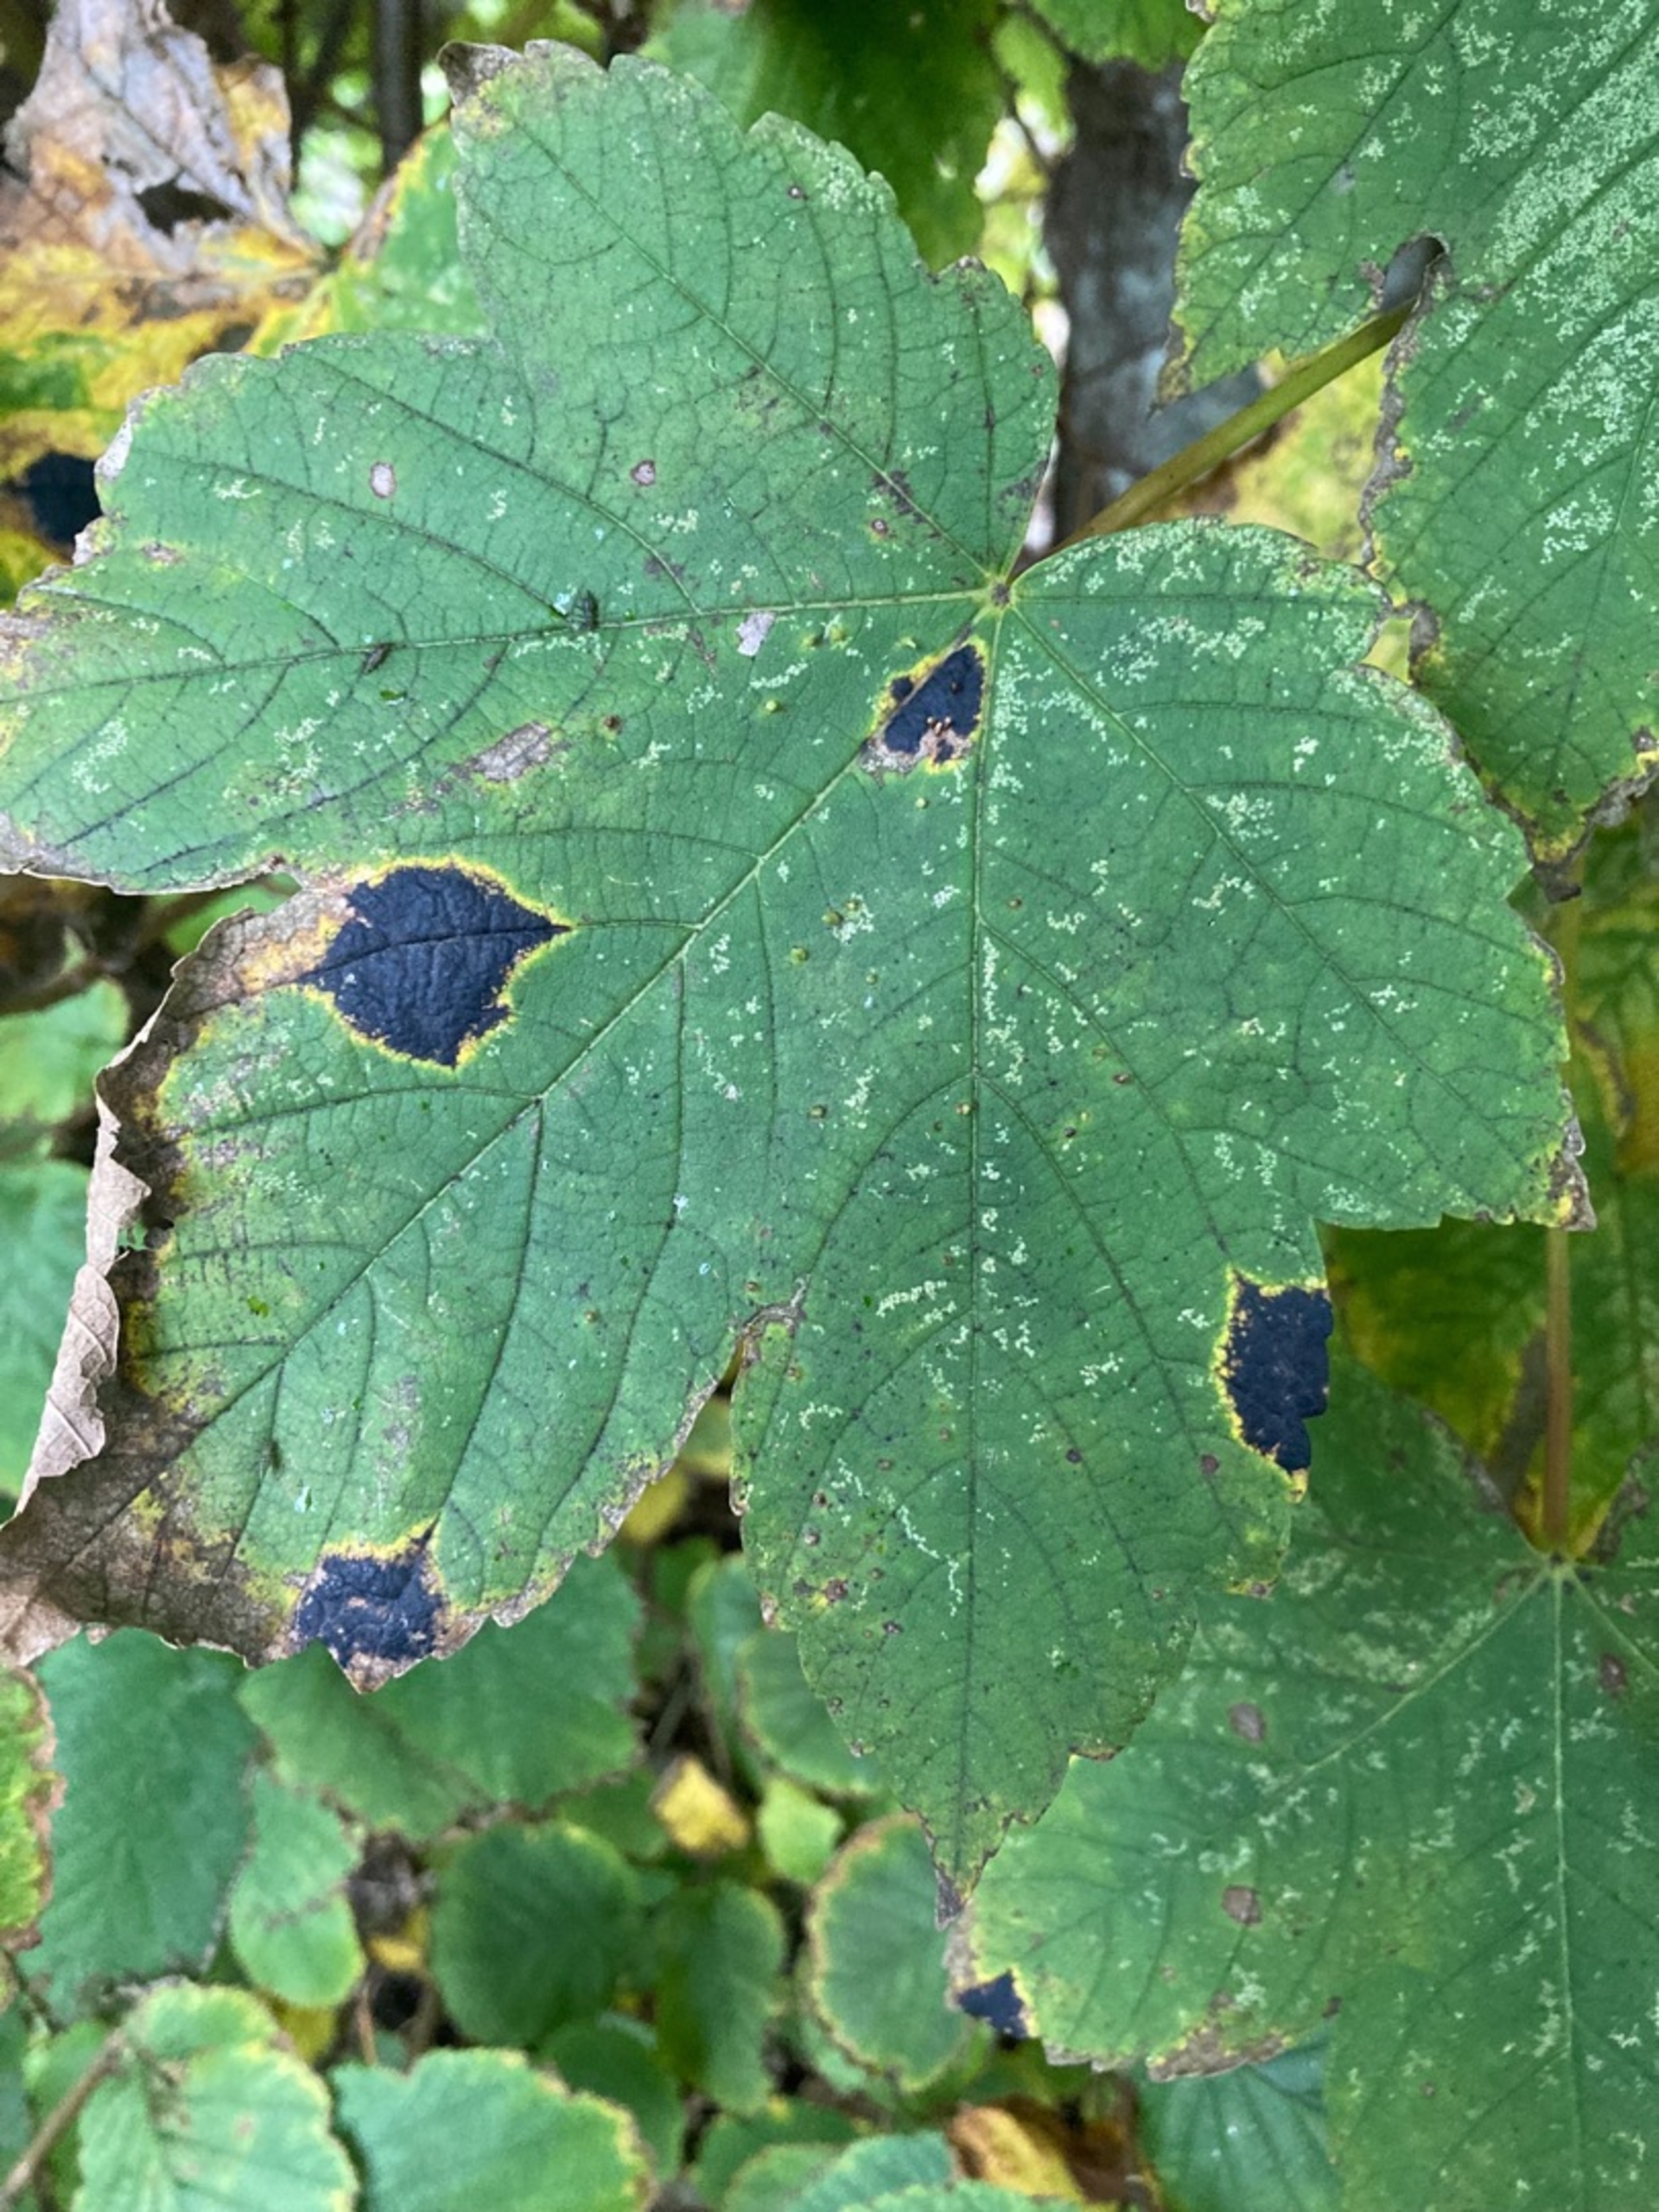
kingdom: Fungi
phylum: Ascomycota
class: Leotiomycetes
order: Rhytismatales
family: Rhytismataceae
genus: Rhytisma
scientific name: Rhytisma acerinum
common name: Ahorn-rynkeplet
